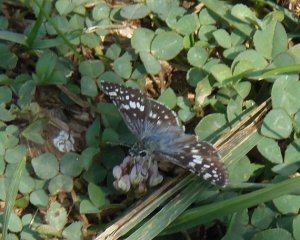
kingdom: Animalia
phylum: Arthropoda
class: Insecta
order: Lepidoptera
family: Hesperiidae
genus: Pyrgus
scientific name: Pyrgus communis
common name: Common Checkered-Skipper
